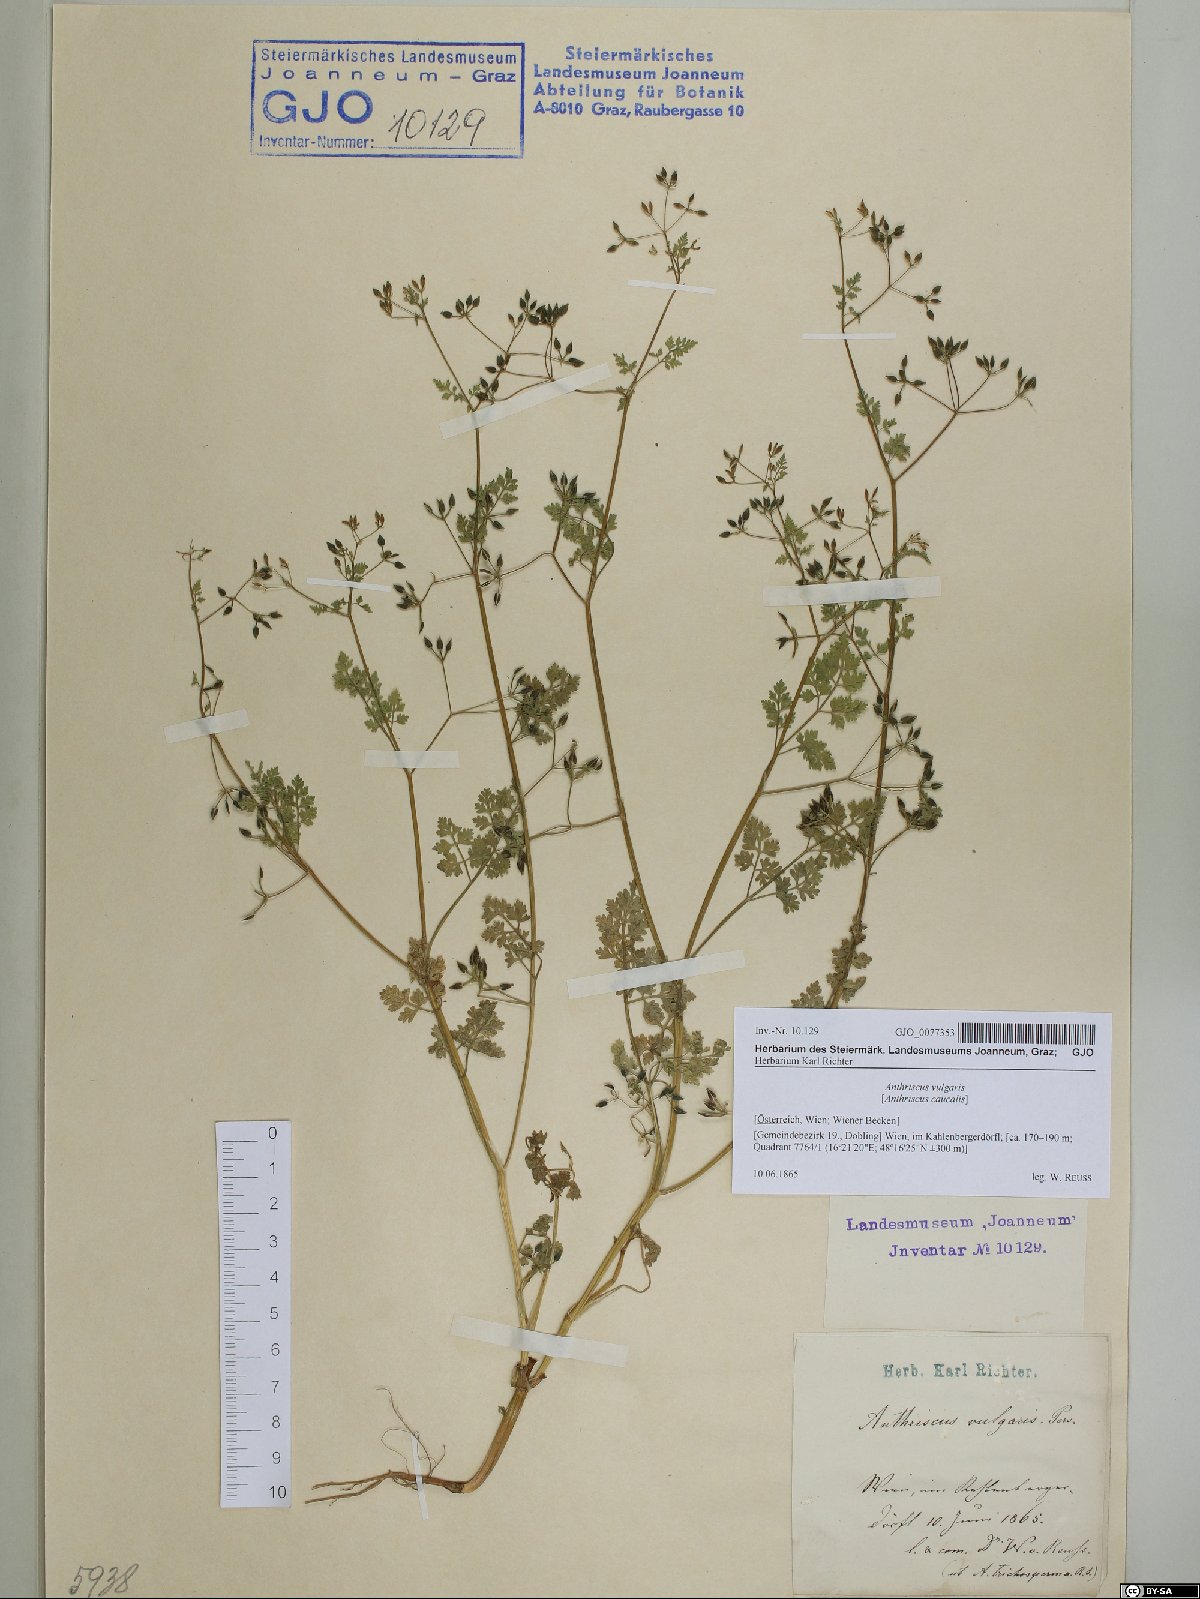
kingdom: Plantae
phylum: Tracheophyta
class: Magnoliopsida
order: Apiales
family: Apiaceae
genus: Anthriscus
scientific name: Anthriscus caucalis
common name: Bur chervil
